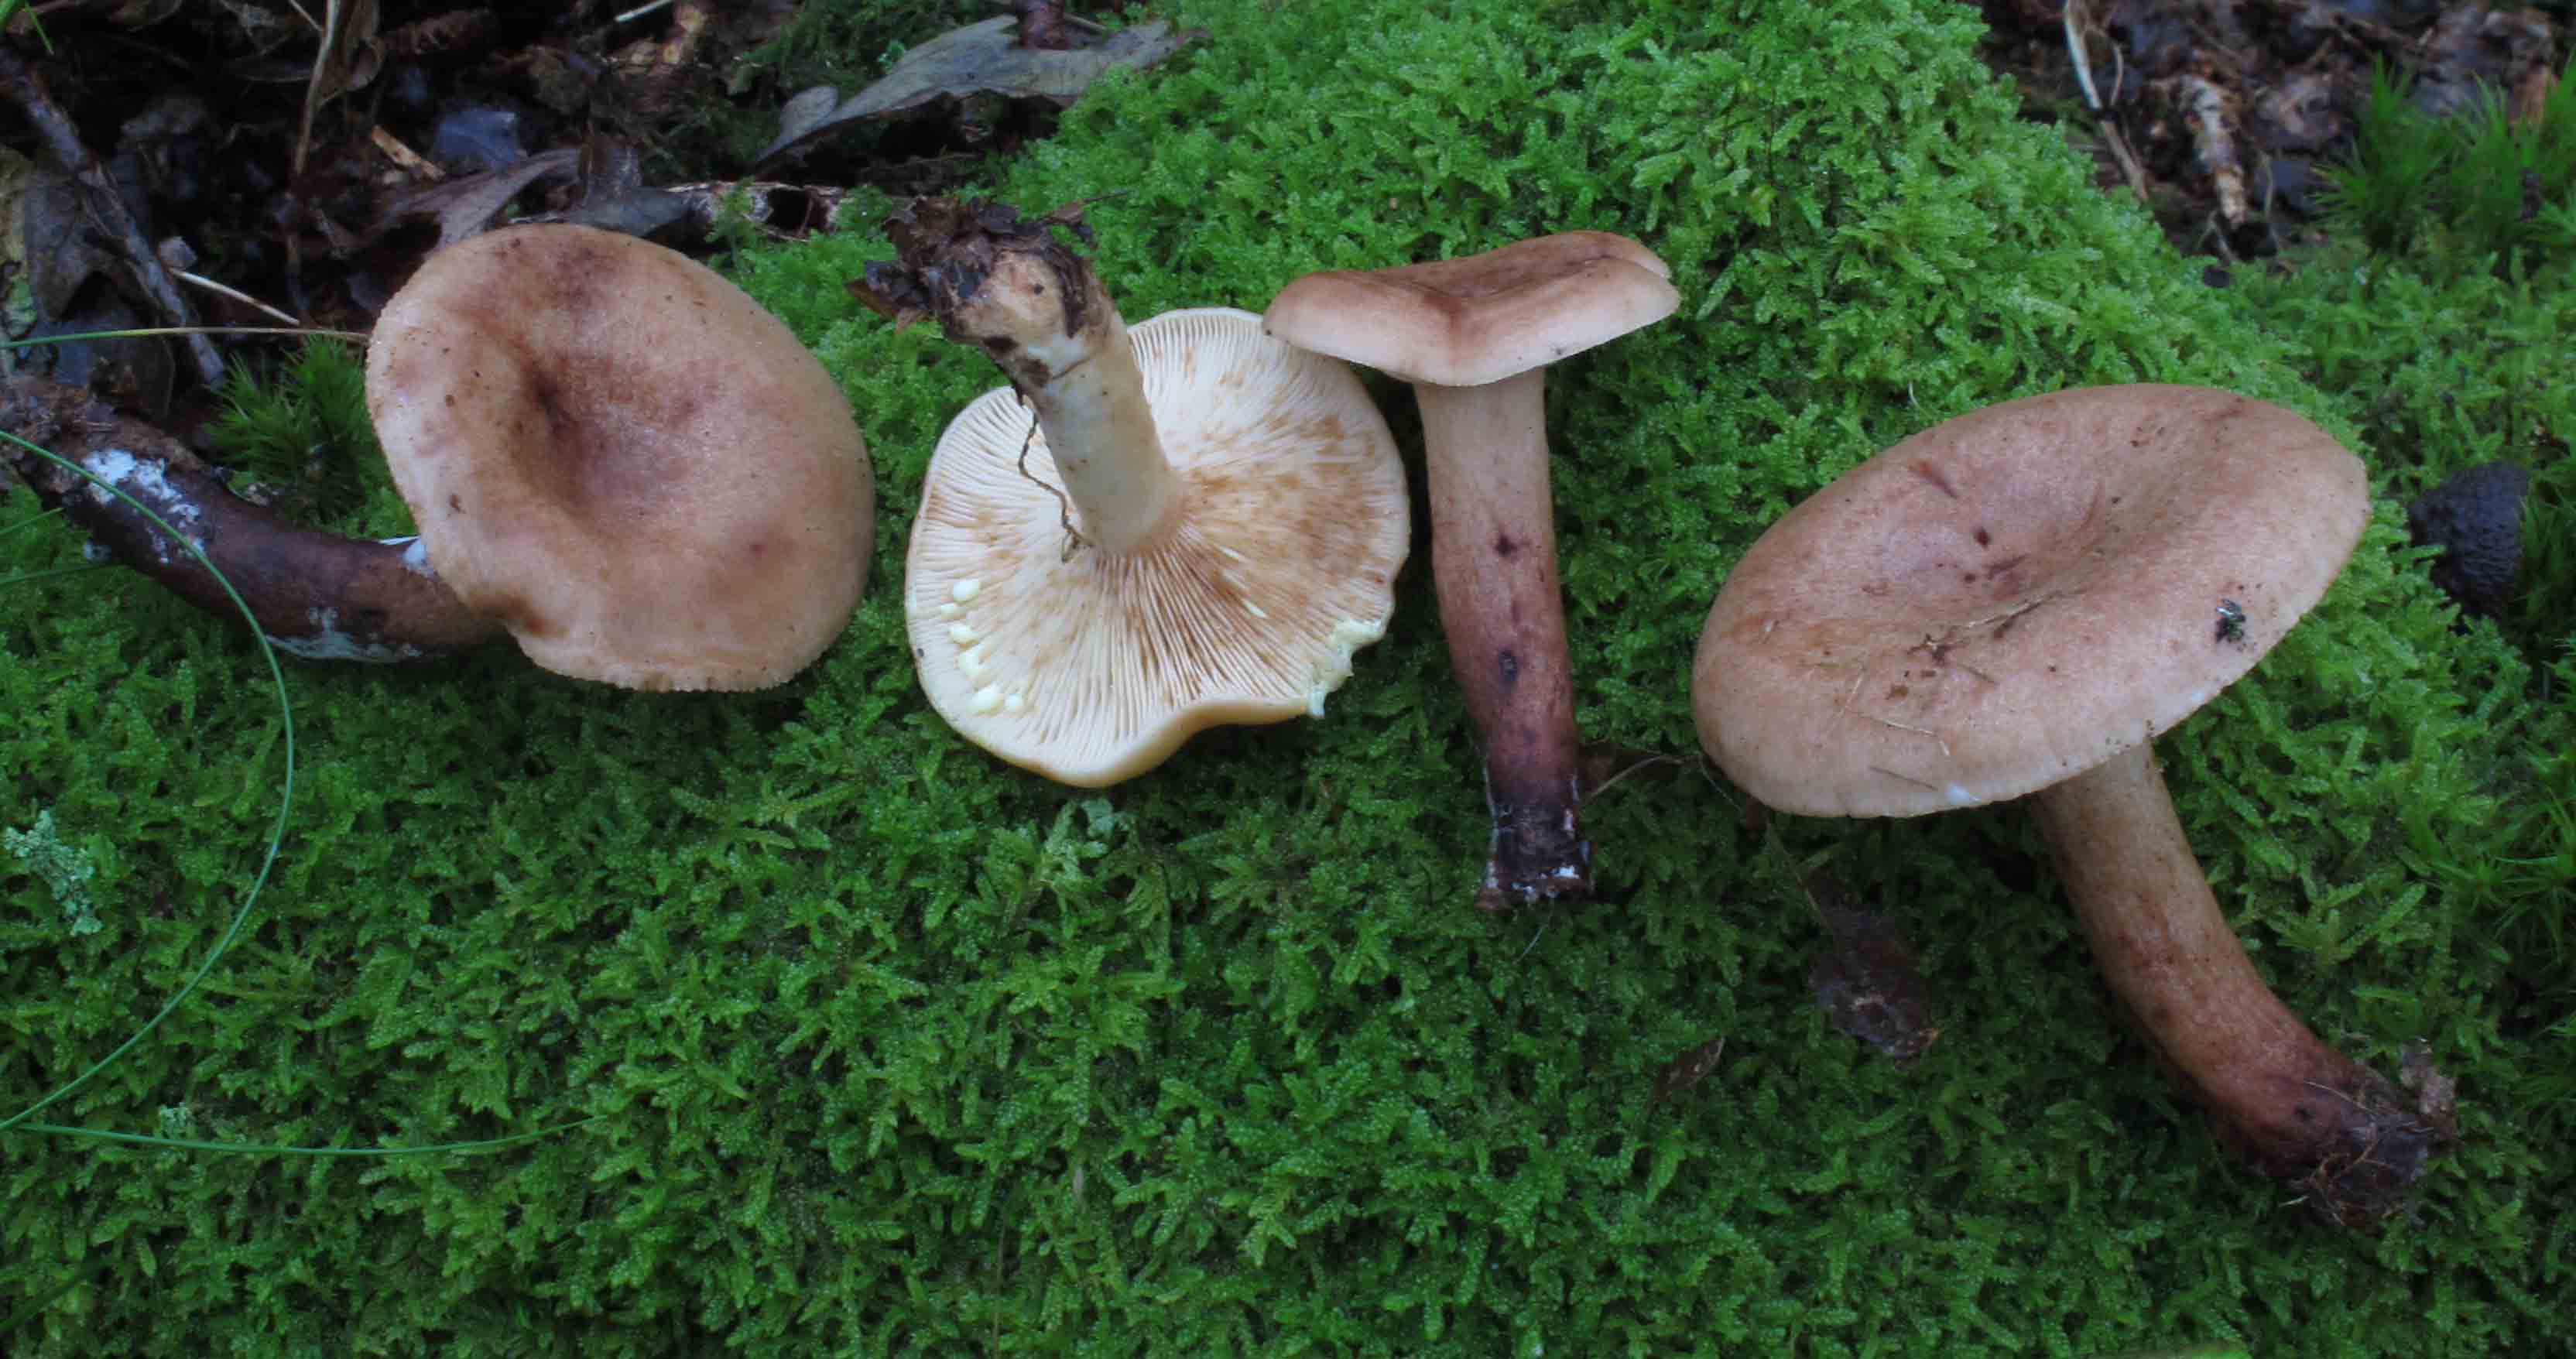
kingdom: Fungi
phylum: Basidiomycota
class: Agaricomycetes
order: Russulales
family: Russulaceae
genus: Lactarius
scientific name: Lactarius chrysorrheus
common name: svovlmælket mælkehat
